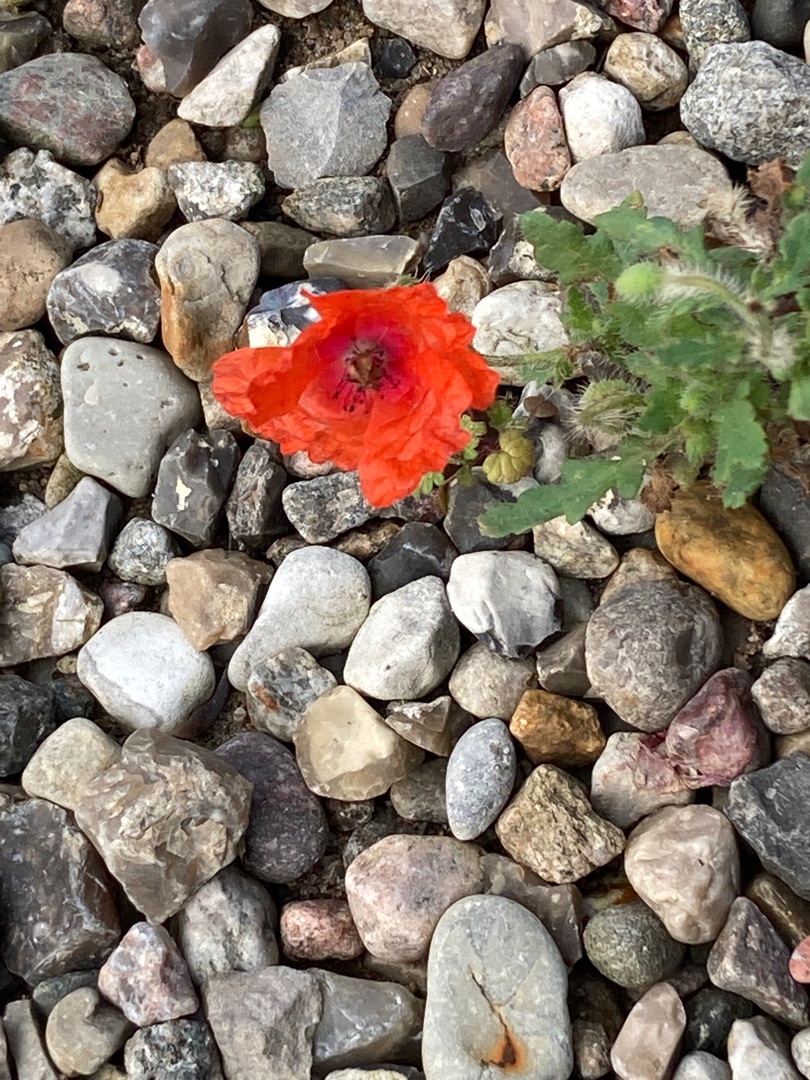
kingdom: Plantae
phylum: Tracheophyta
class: Magnoliopsida
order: Ranunculales
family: Papaveraceae
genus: Papaver
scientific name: Papaver dubium
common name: Gærde-valmue
